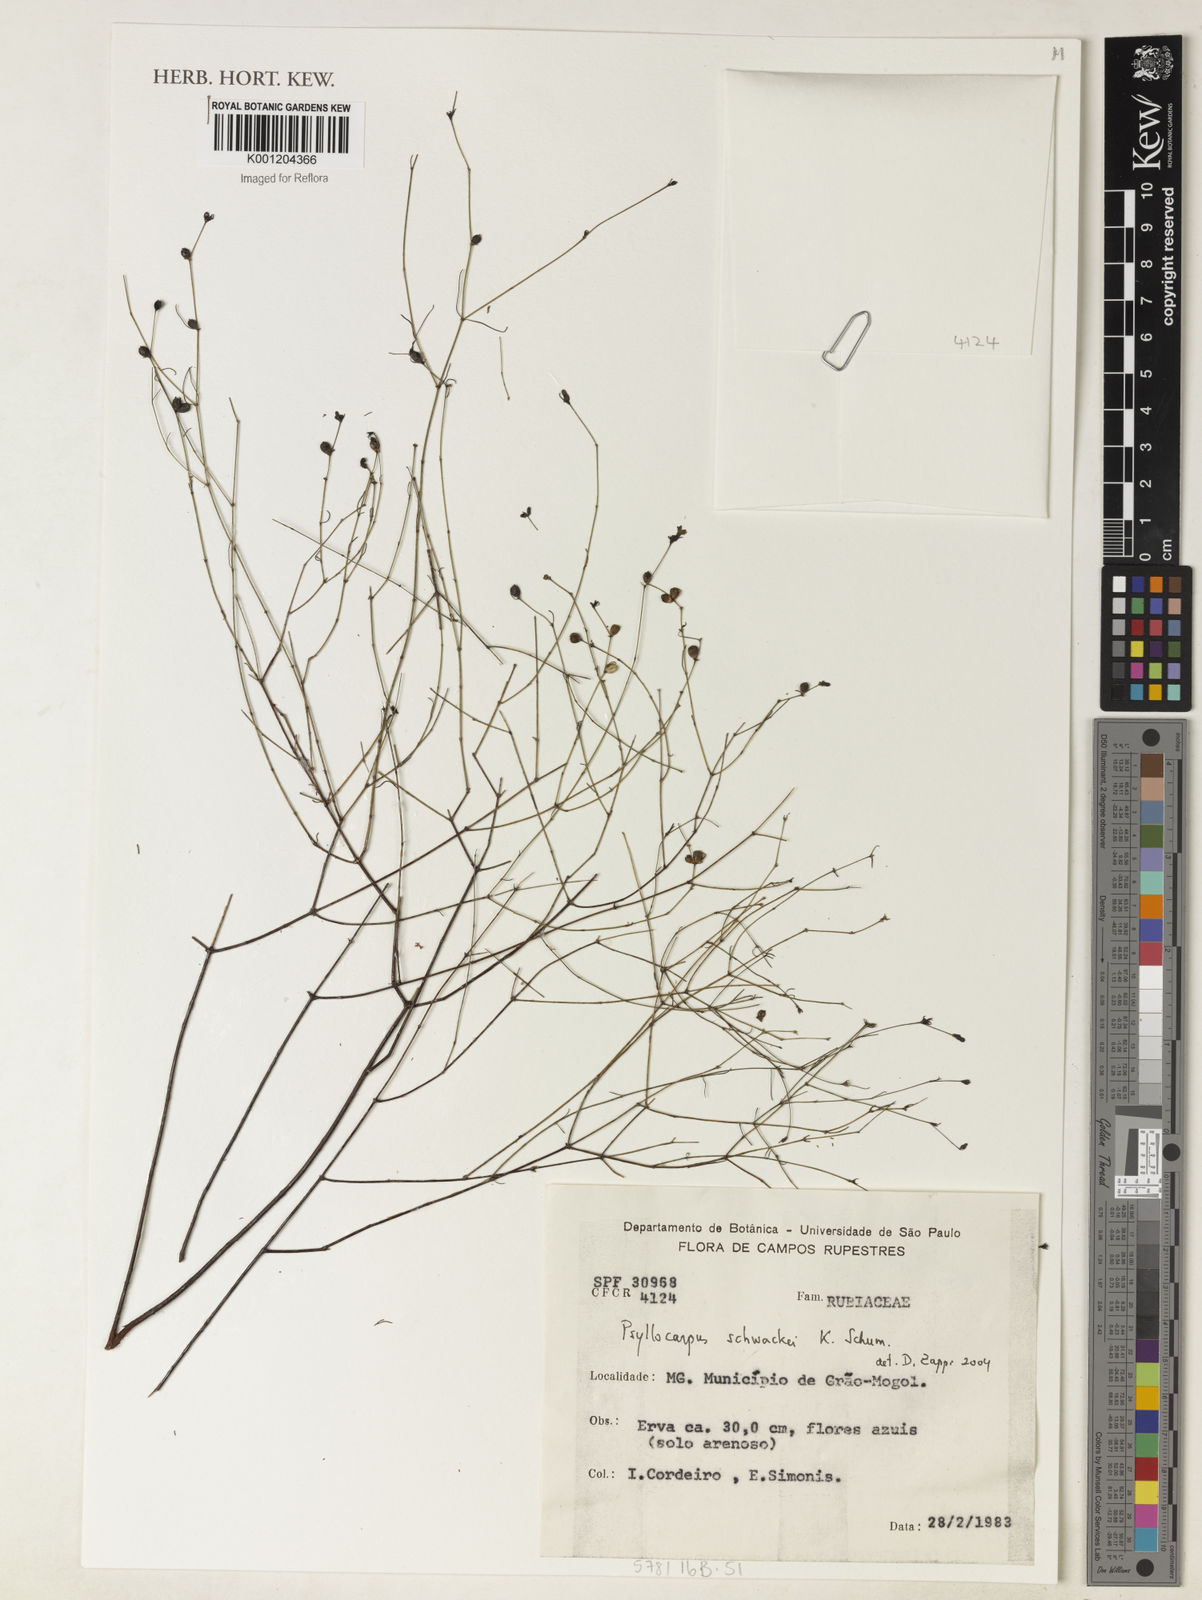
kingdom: Plantae
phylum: Tracheophyta
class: Magnoliopsida
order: Gentianales
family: Rubiaceae
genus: Psyllocarpus
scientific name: Psyllocarpus schwackei
